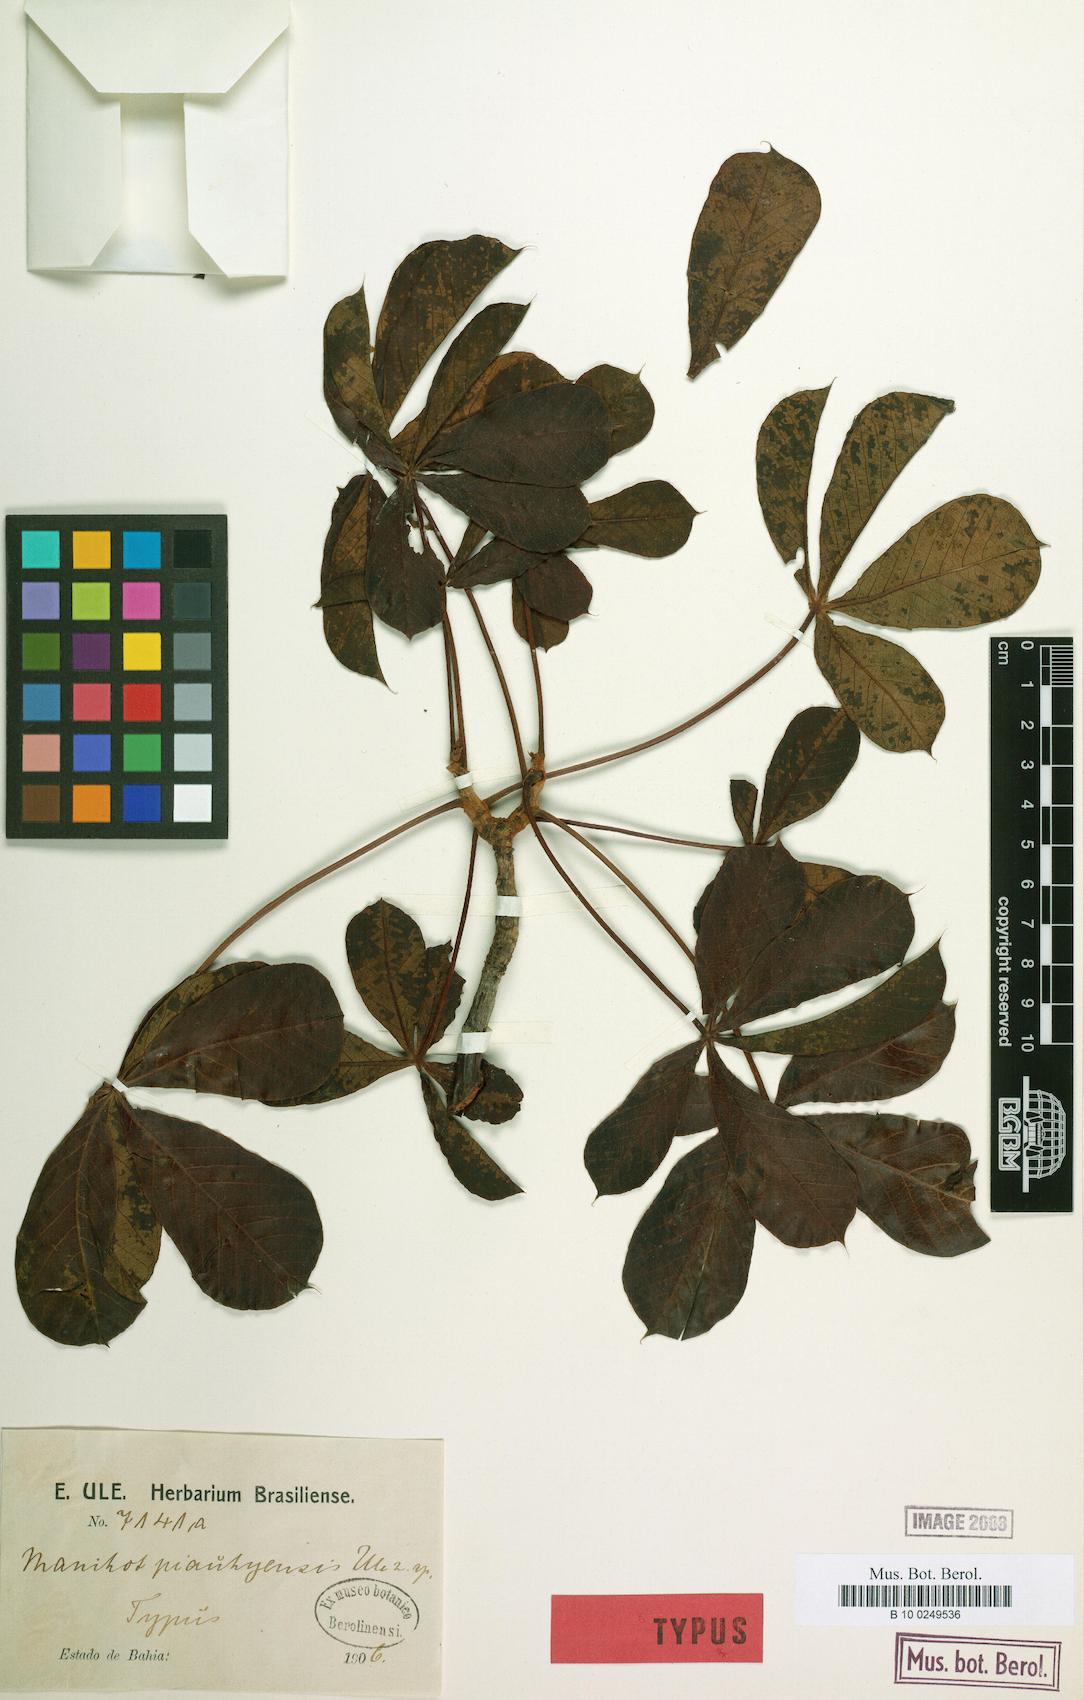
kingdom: Plantae
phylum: Tracheophyta
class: Magnoliopsida
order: Malpighiales
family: Euphorbiaceae
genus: Manihot
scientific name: Manihot caerulescens
